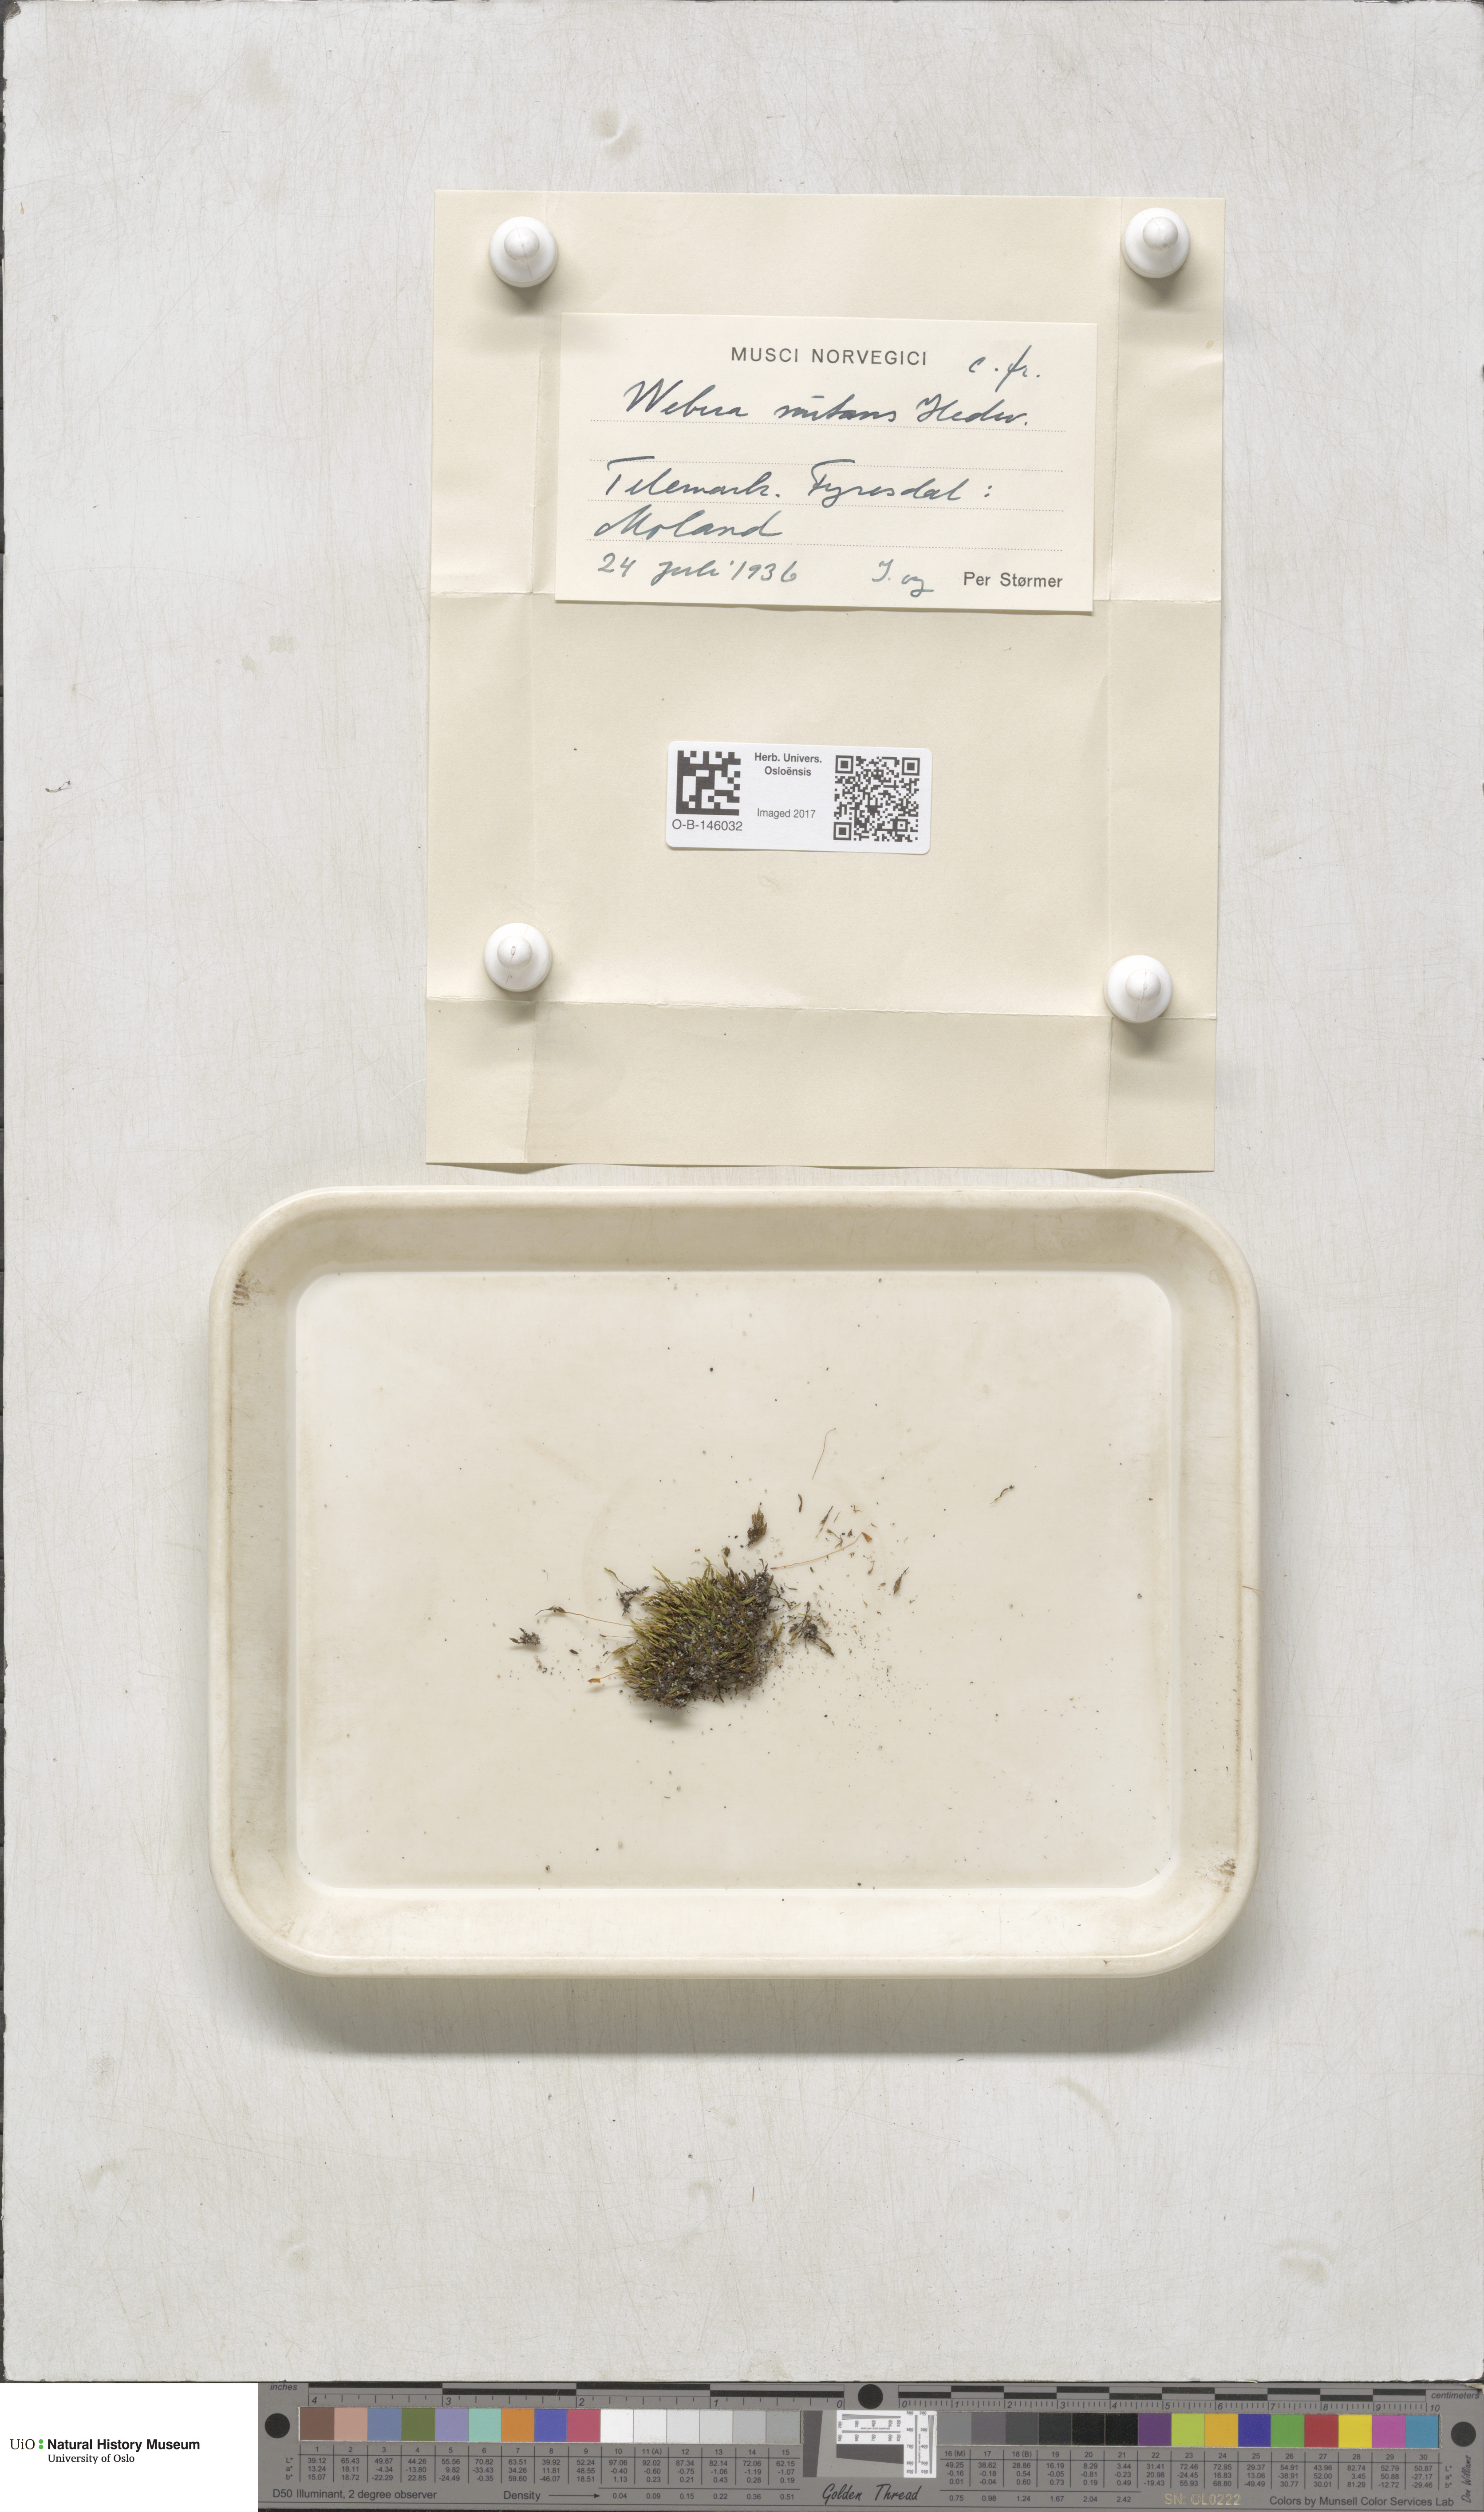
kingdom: Plantae
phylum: Bryophyta
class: Bryopsida
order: Bryales
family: Mniaceae
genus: Pohlia
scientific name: Pohlia nutans
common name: Nodding thread-moss
